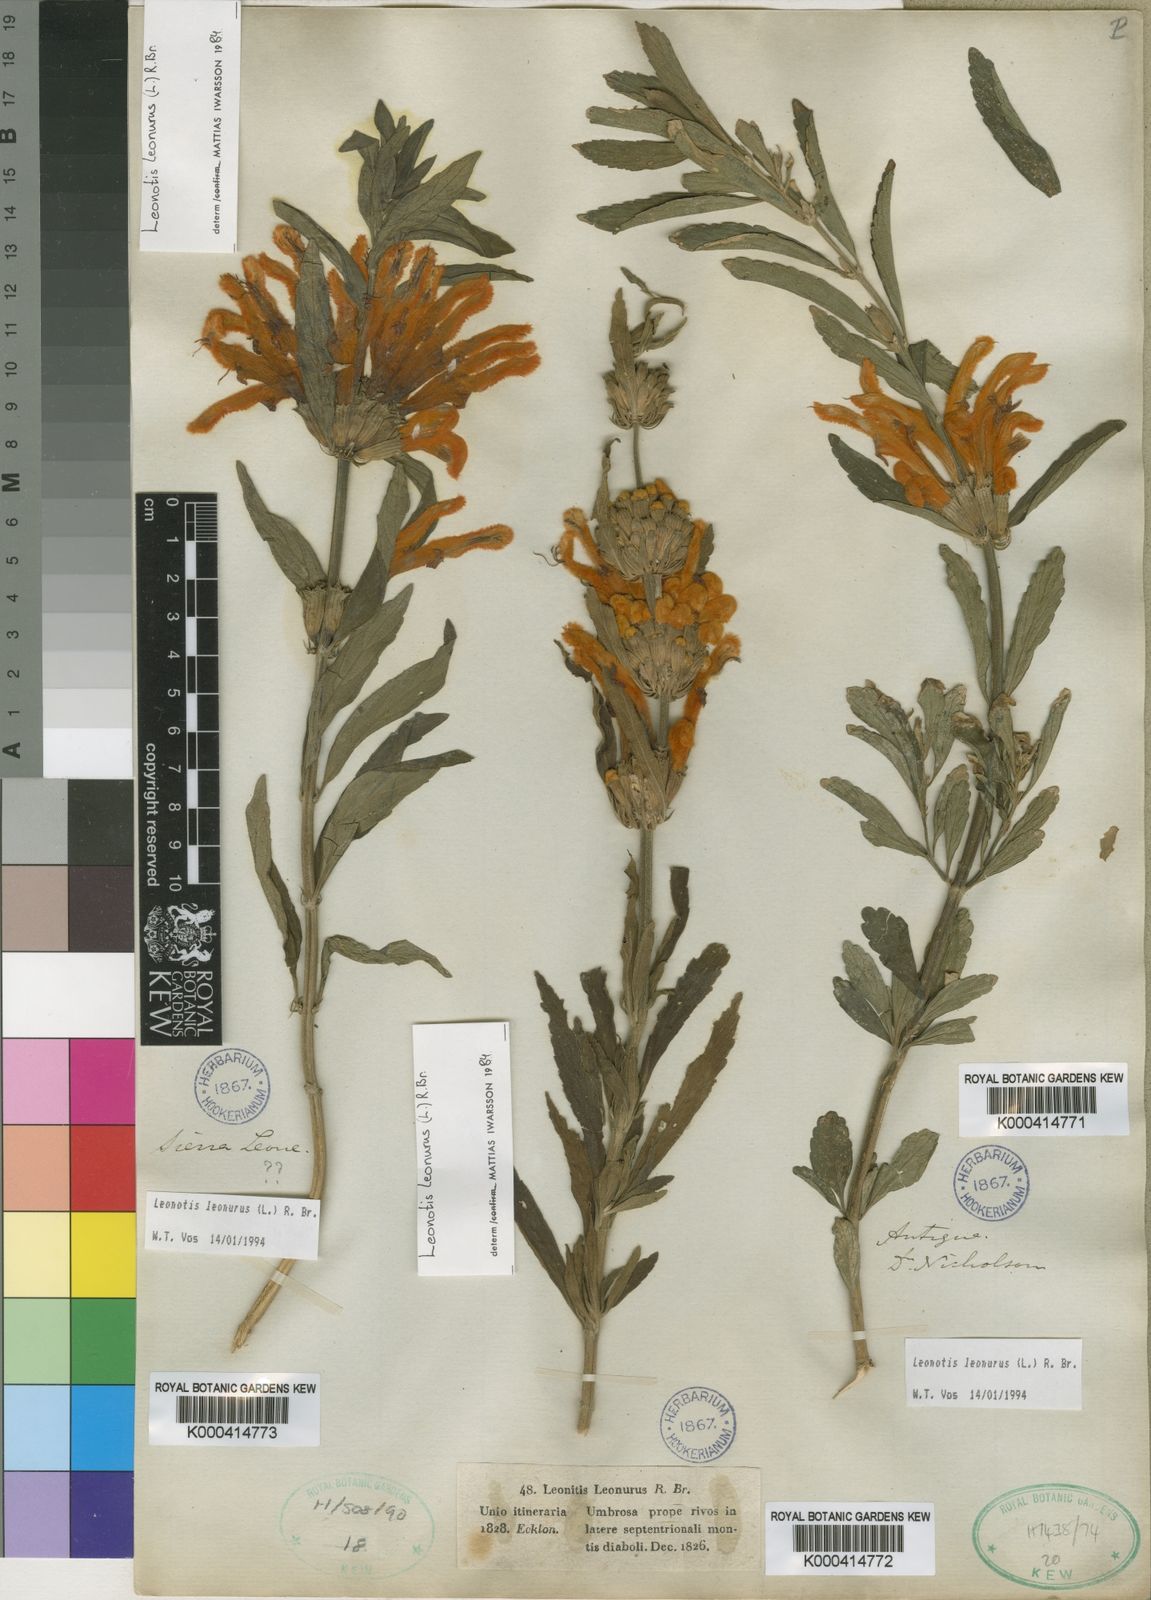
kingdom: Plantae
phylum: Tracheophyta
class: Magnoliopsida
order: Lamiales
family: Lamiaceae
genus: Leonotis
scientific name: Leonotis leonurus
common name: Lion's ear
